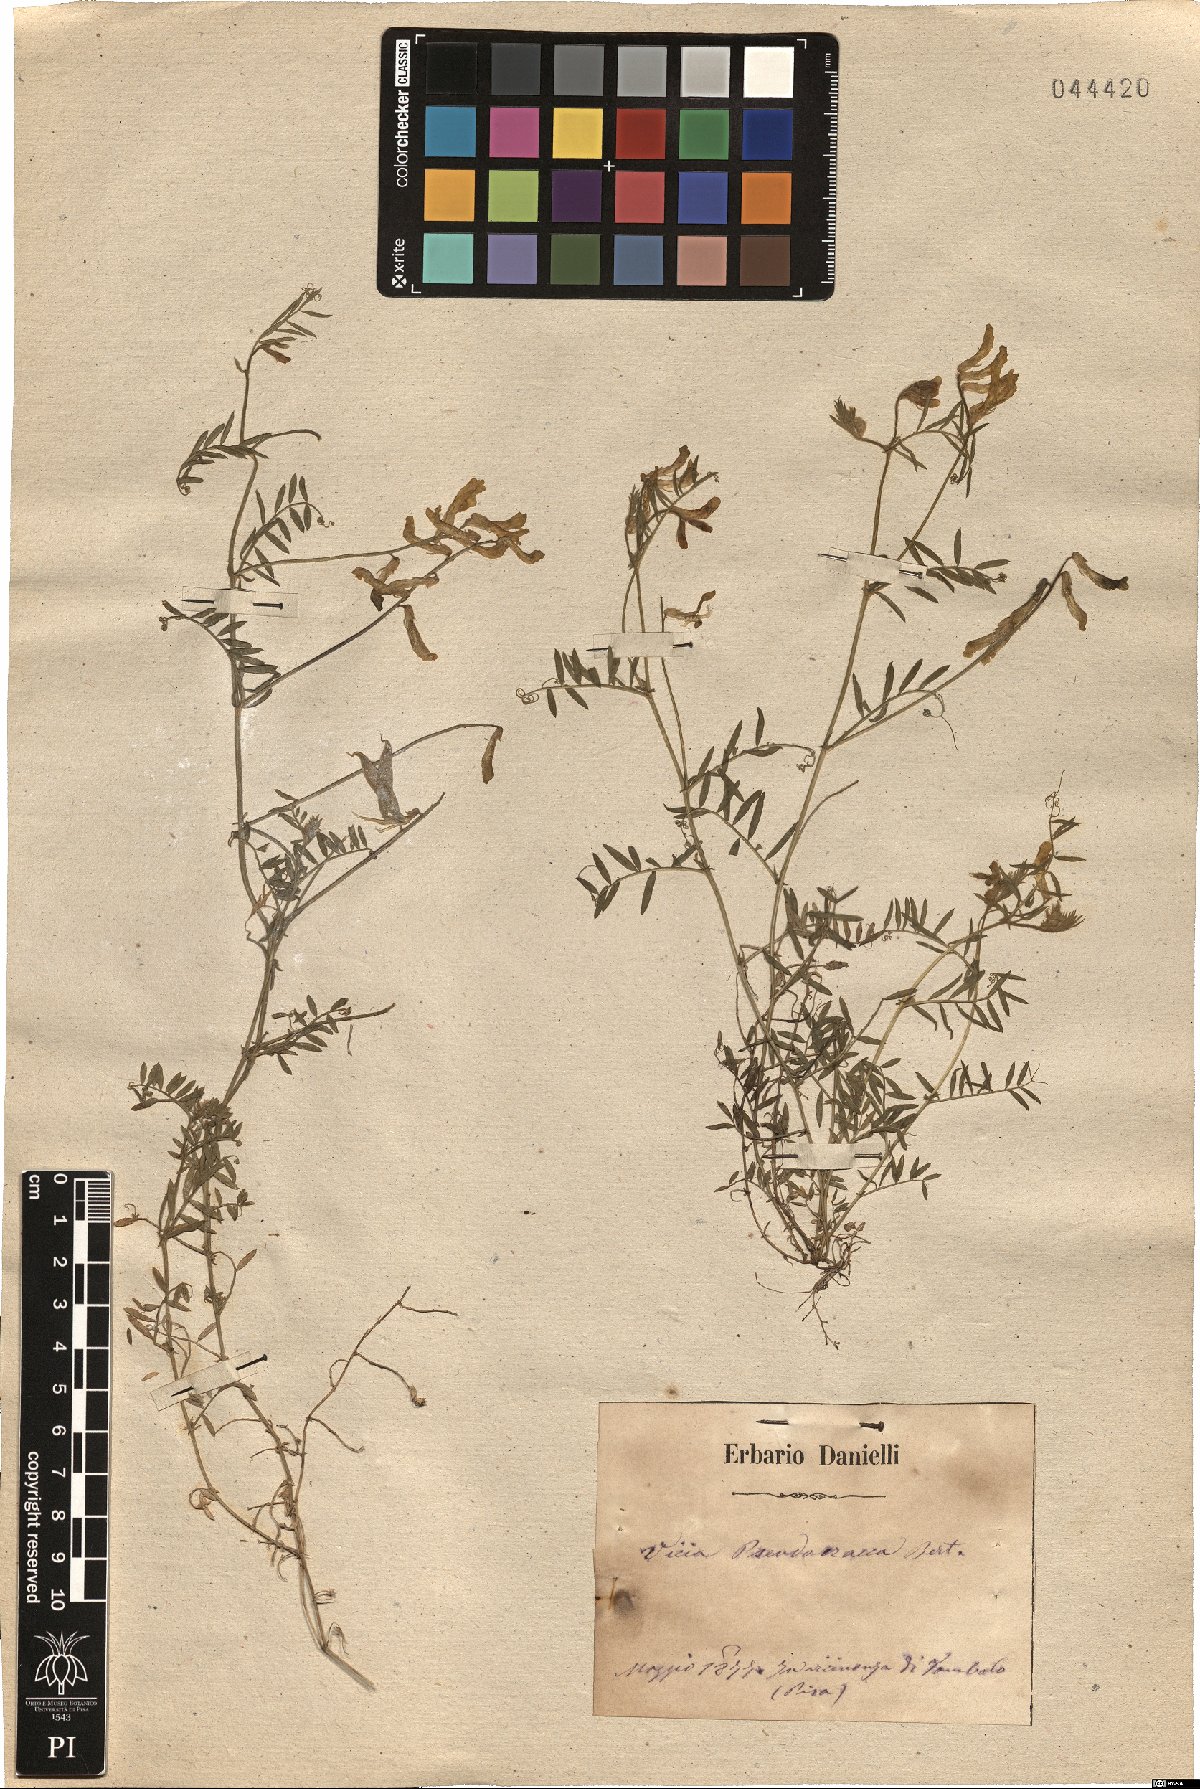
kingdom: Plantae
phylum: Tracheophyta
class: Magnoliopsida
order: Fabales
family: Fabaceae
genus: Vicia
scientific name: Vicia villosa
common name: Fodder vetch
